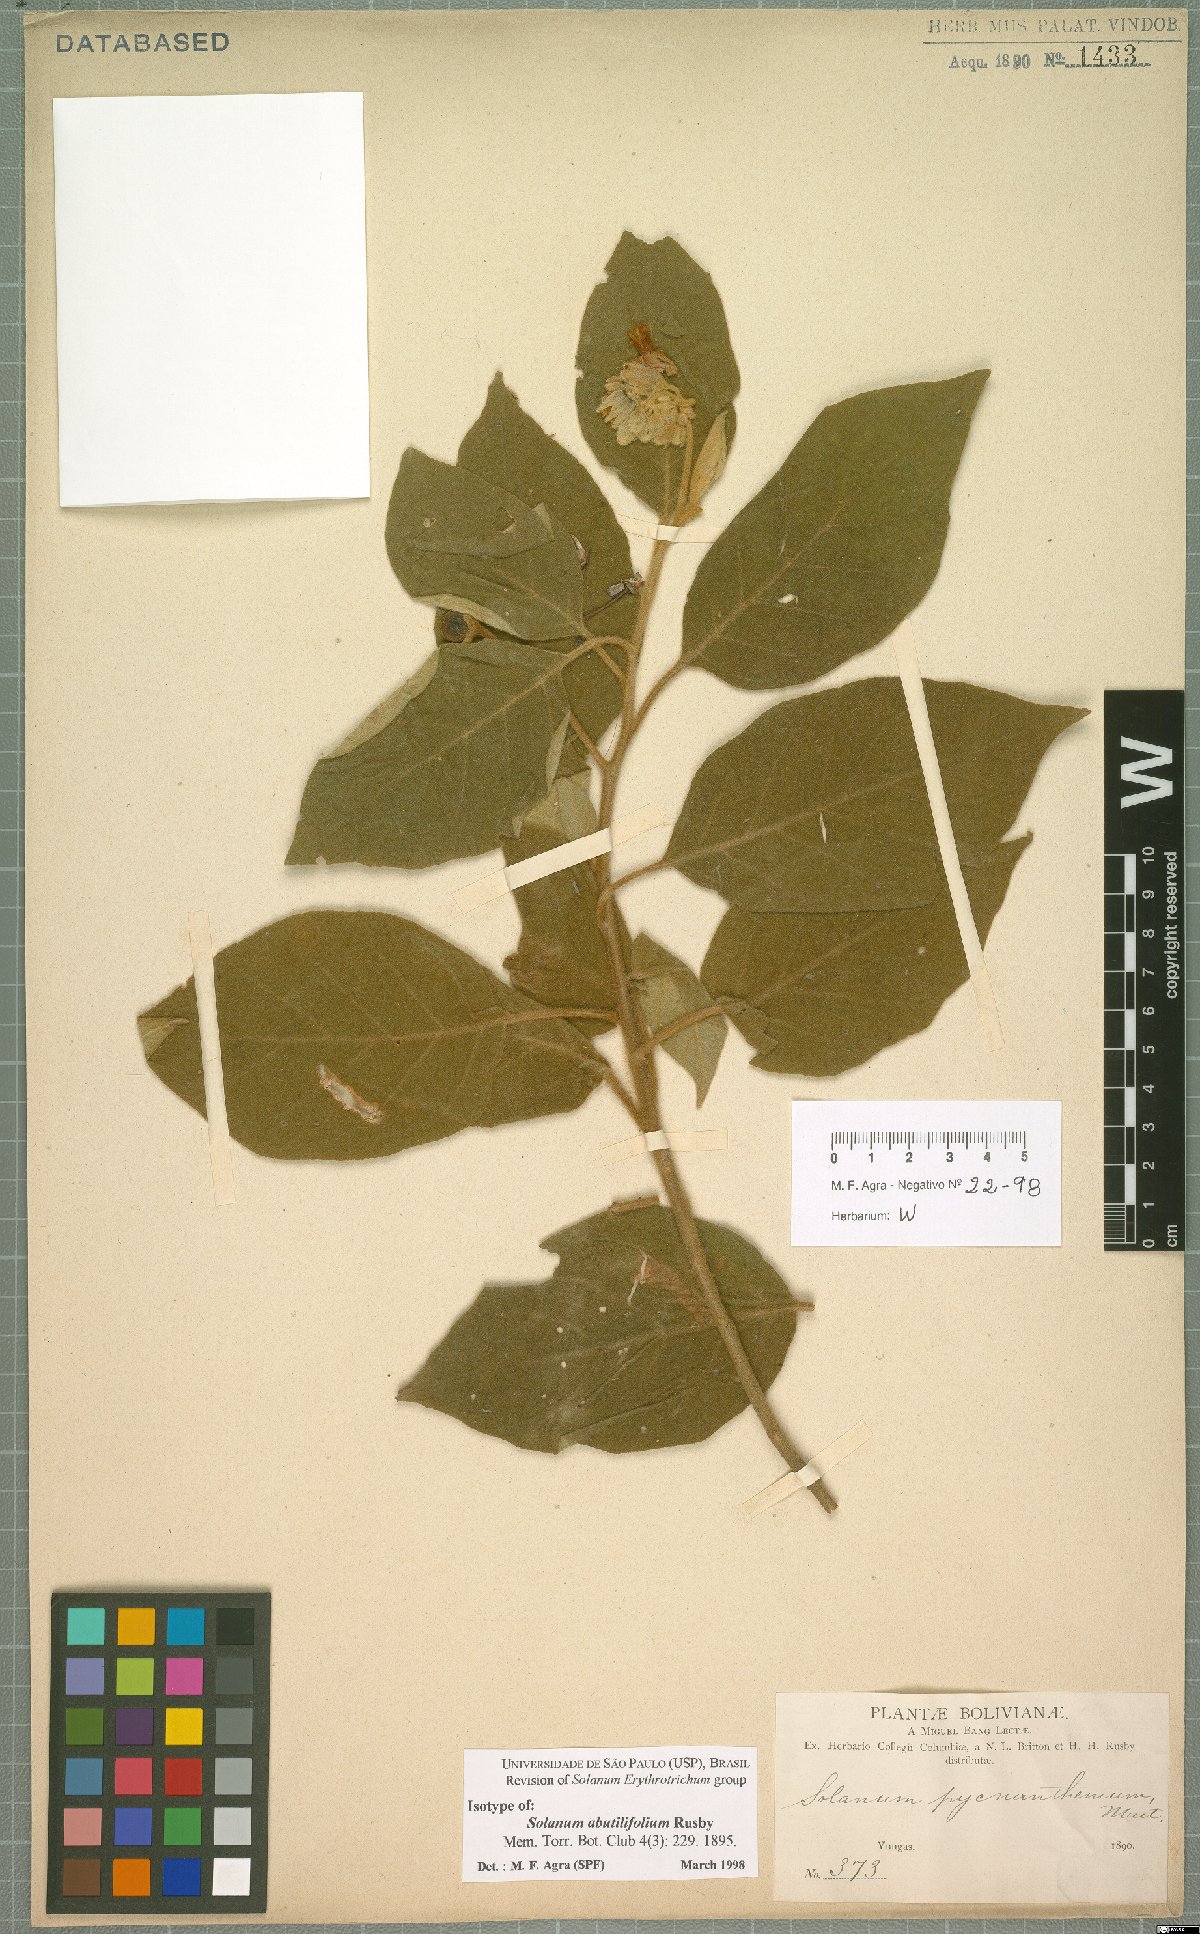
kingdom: Plantae
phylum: Tracheophyta
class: Magnoliopsida
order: Solanales
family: Solanaceae
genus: Solanum
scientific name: Solanum abutilifolium
